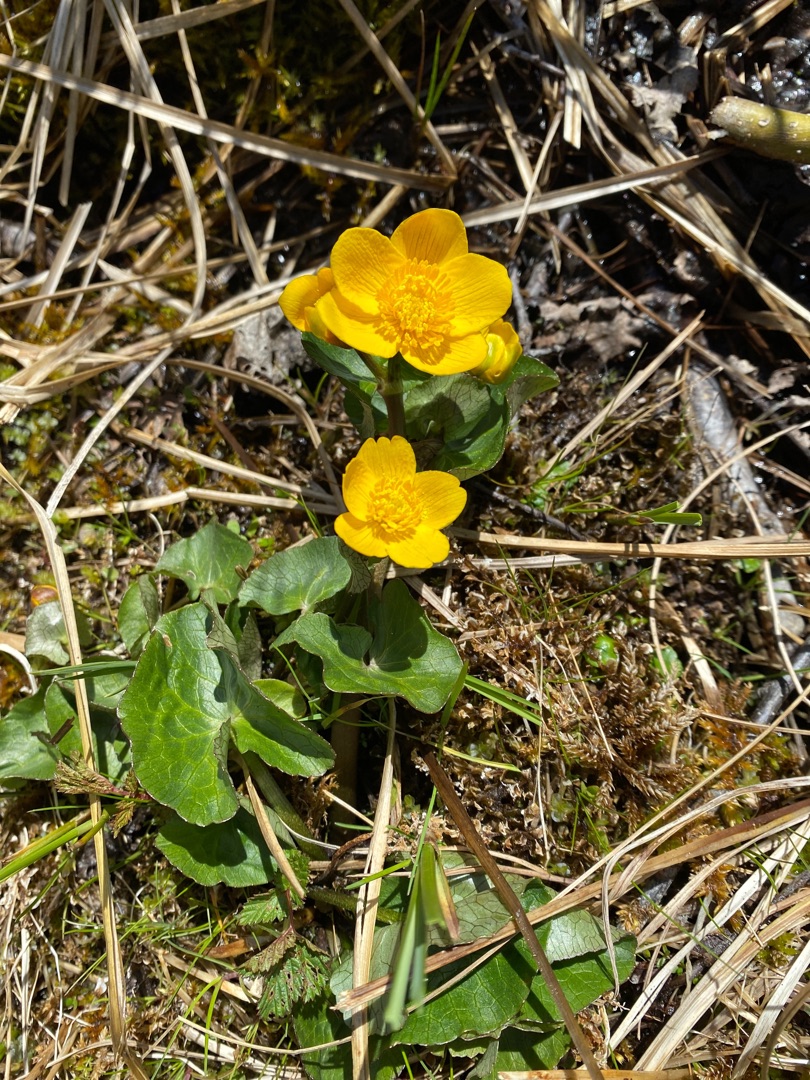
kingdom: Plantae
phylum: Tracheophyta
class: Magnoliopsida
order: Ranunculales
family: Ranunculaceae
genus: Caltha
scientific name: Caltha palustris
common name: Eng-kabbeleje
